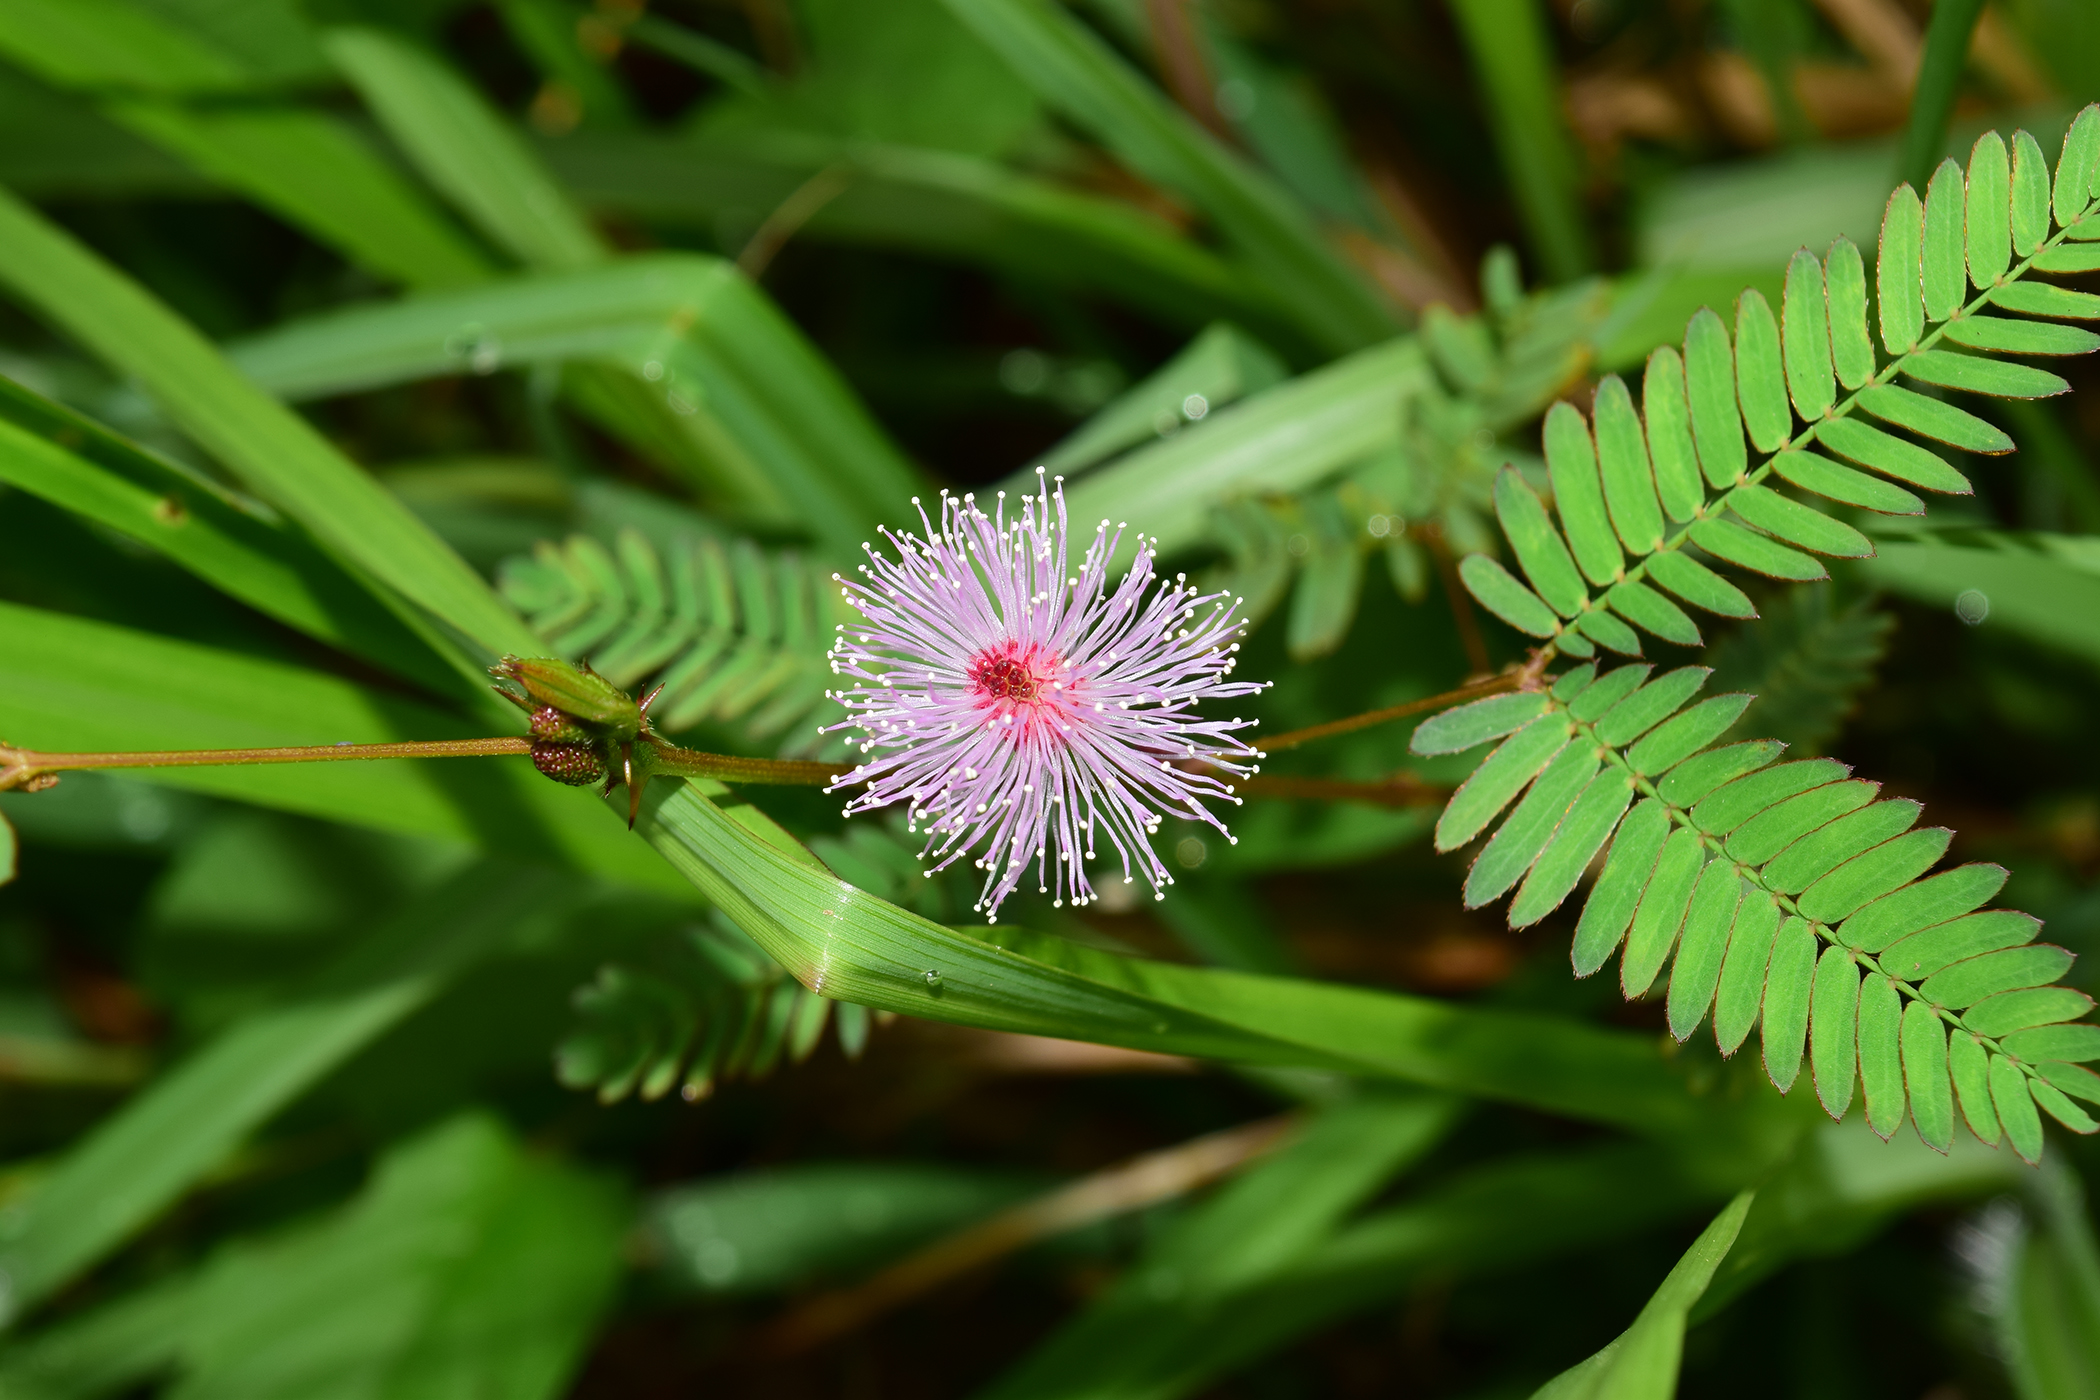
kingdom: Plantae
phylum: Tracheophyta
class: Magnoliopsida
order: Fabales
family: Fabaceae
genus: Mimosa
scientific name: Mimosa pudica
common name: Sensitive plant
